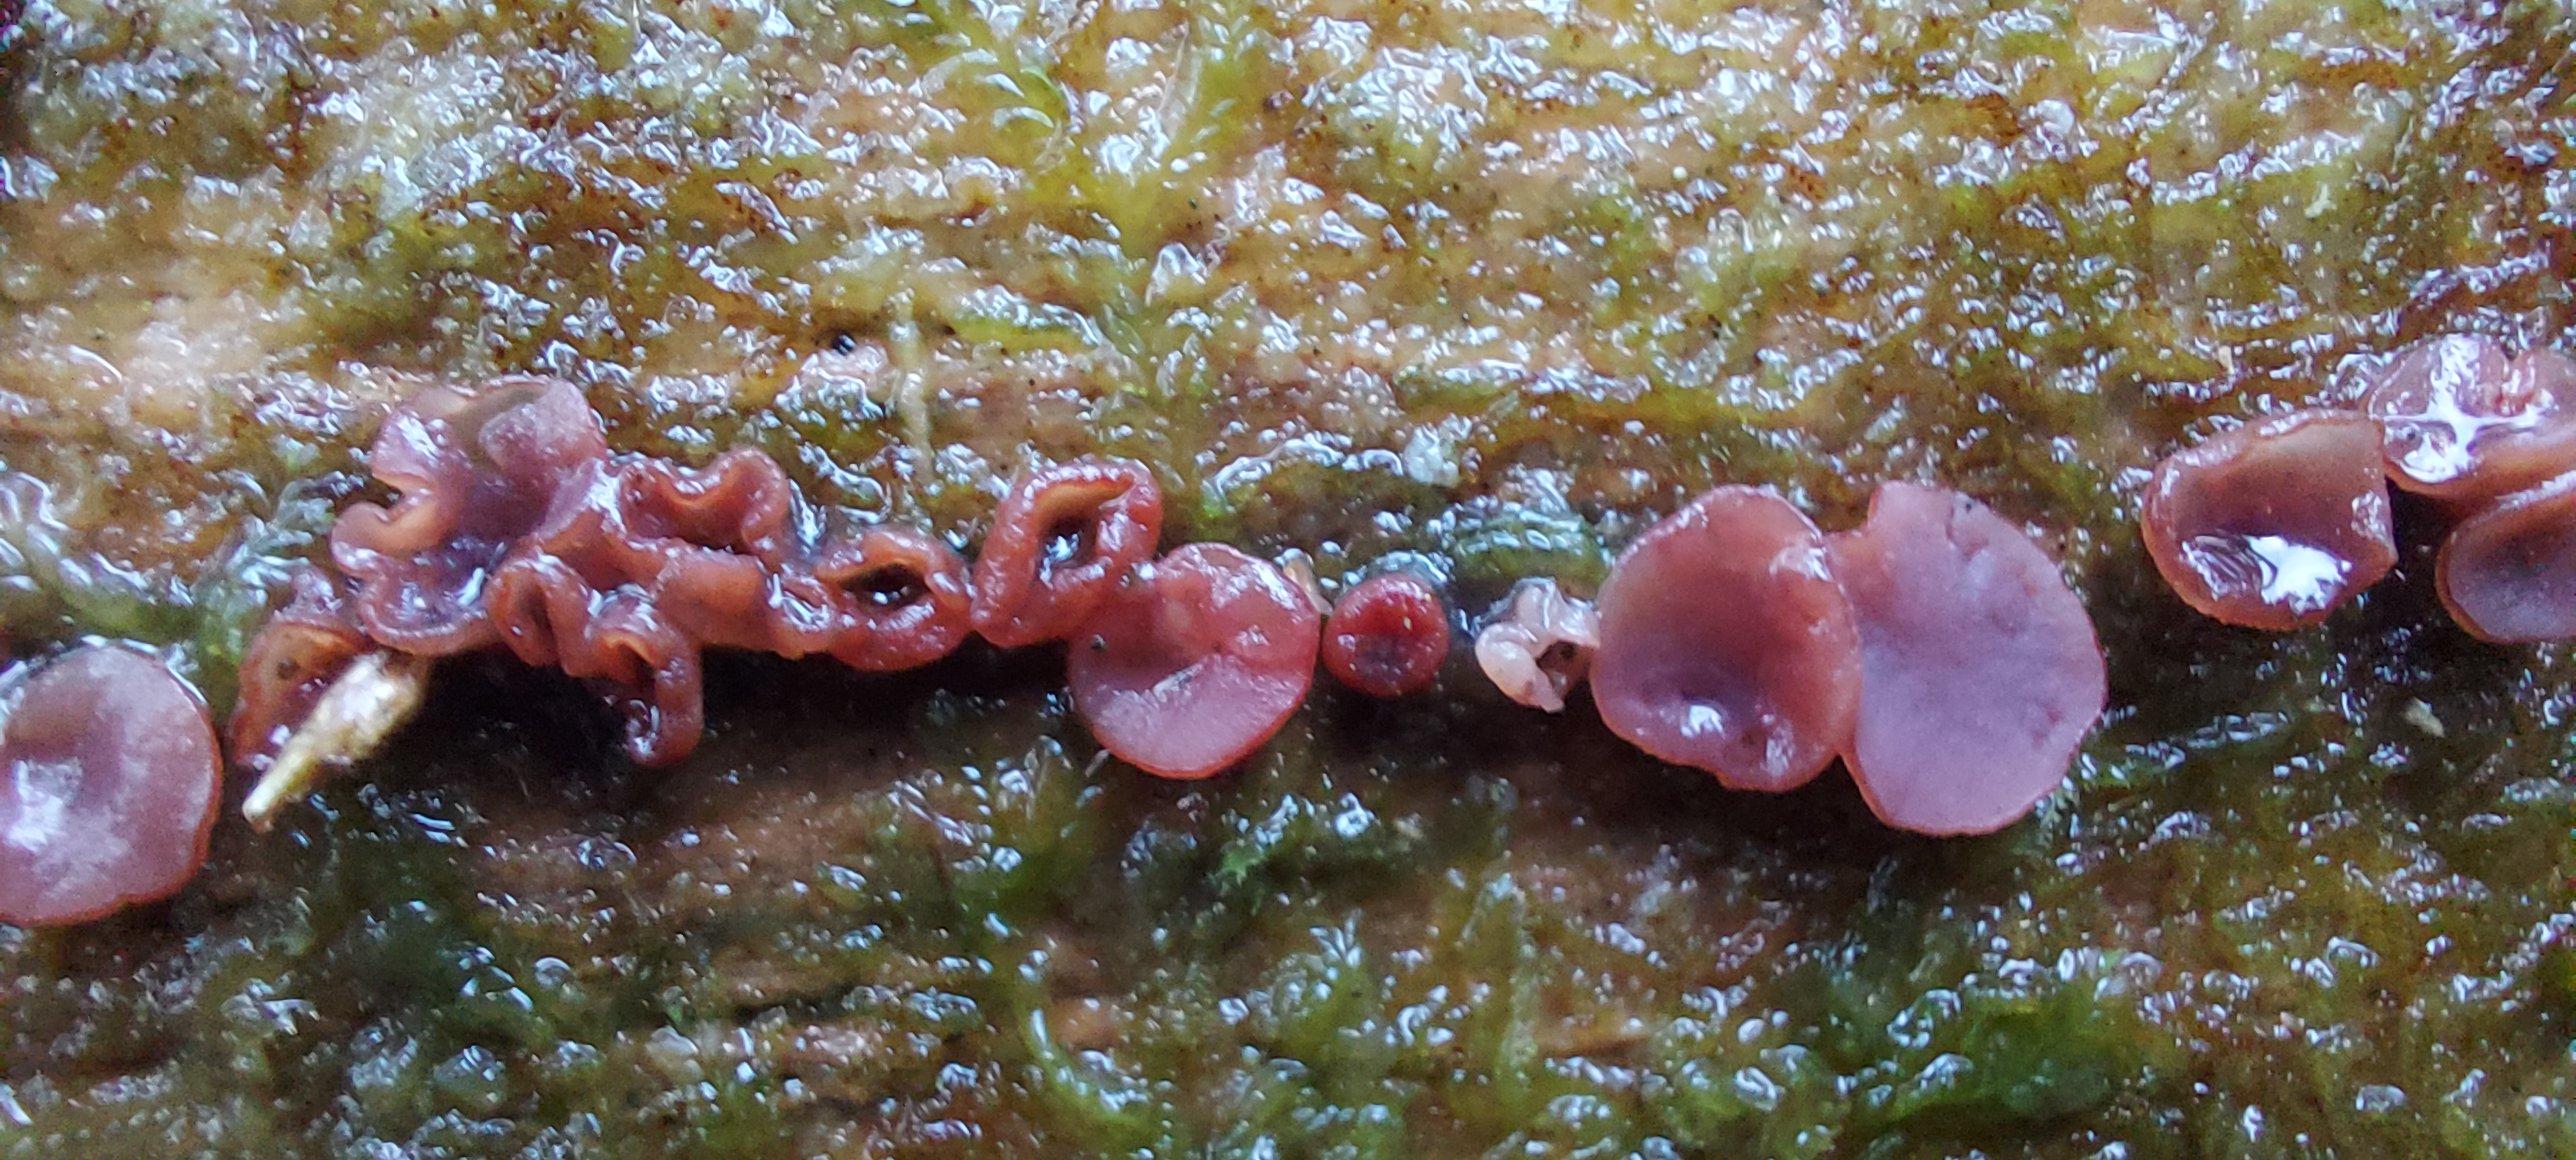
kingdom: Fungi
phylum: Ascomycota
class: Leotiomycetes
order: Helotiales
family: Gelatinodiscaceae
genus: Ascocoryne
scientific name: Ascocoryne sarcoides
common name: rødlilla sejskive
